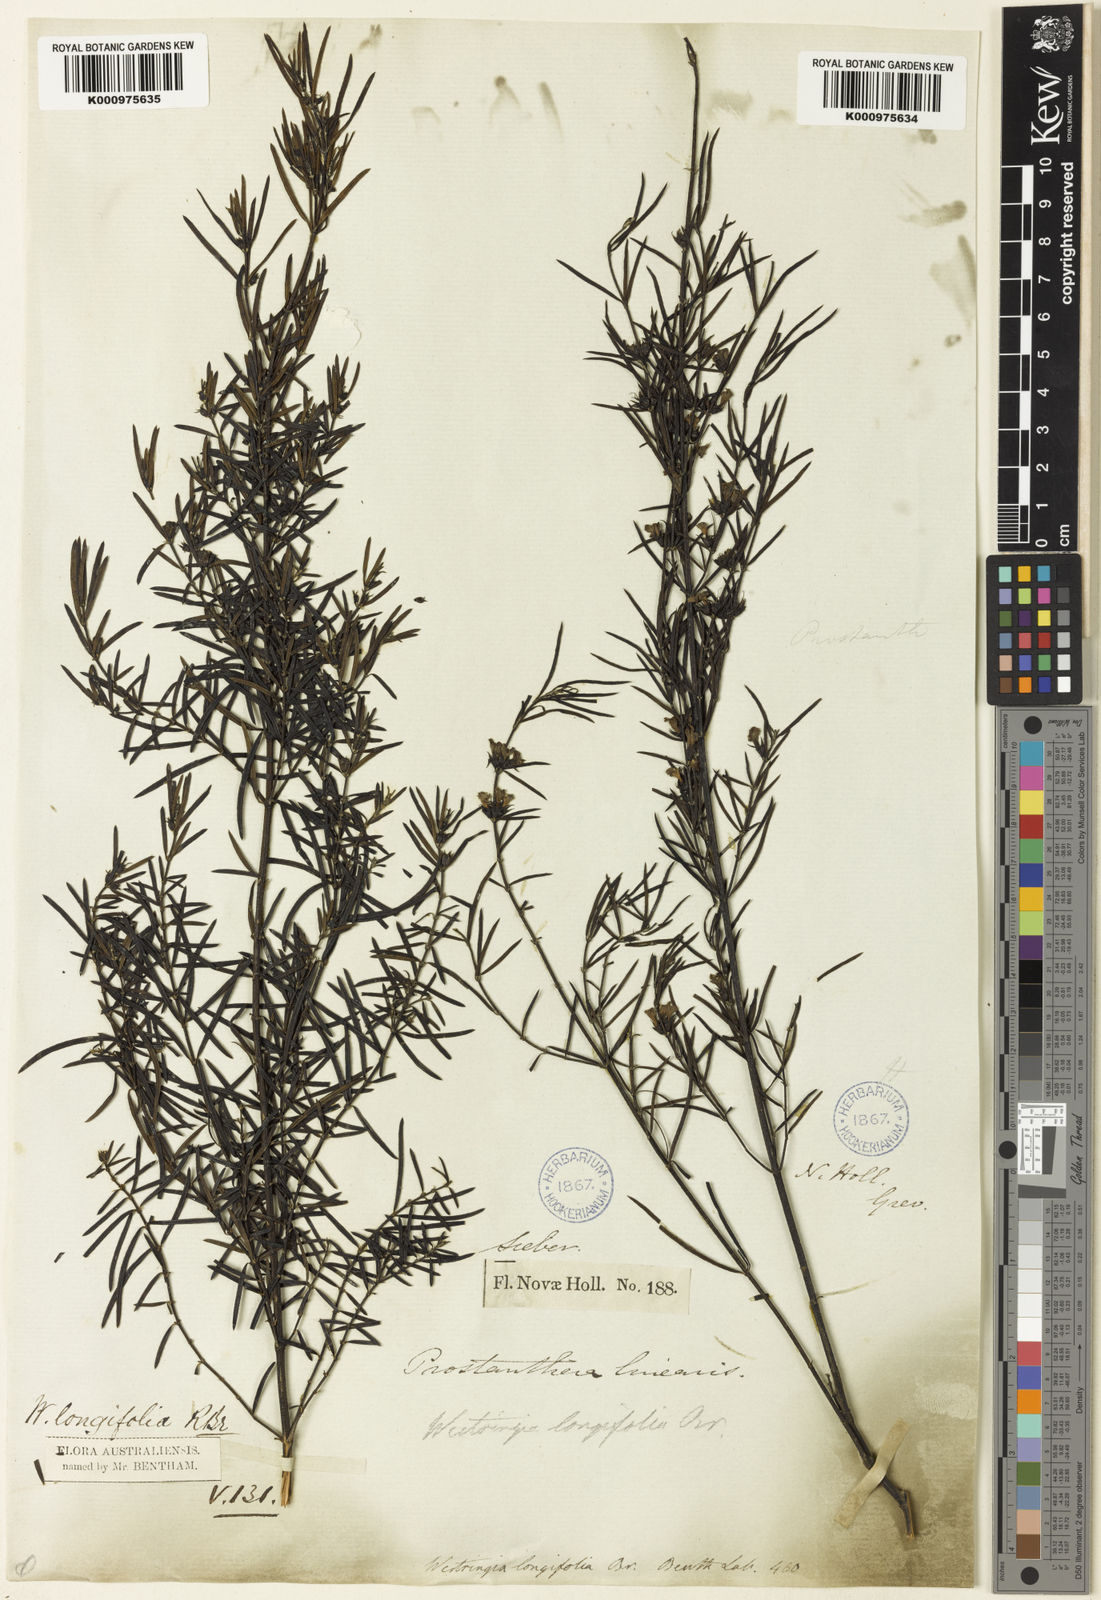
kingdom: Plantae
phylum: Tracheophyta
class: Magnoliopsida
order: Lamiales
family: Lamiaceae
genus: Westringia
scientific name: Westringia longifolia
